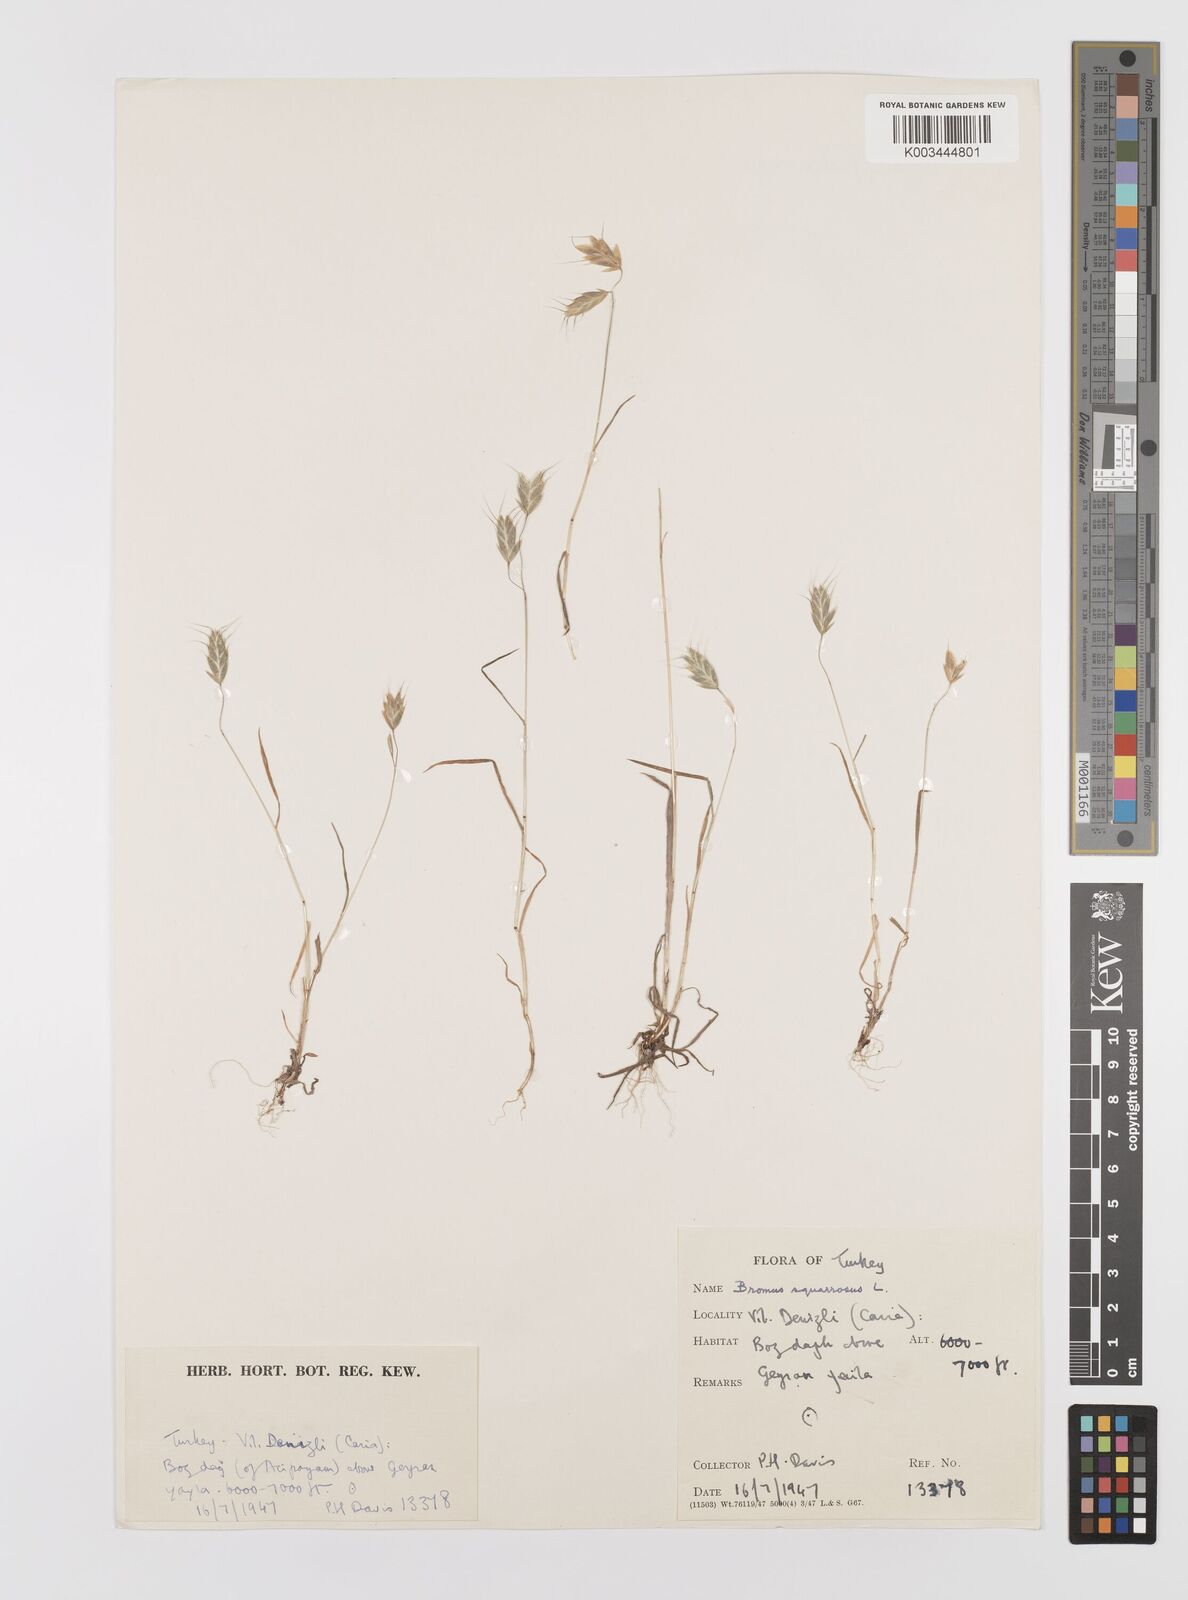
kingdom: Plantae
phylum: Tracheophyta
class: Liliopsida
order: Poales
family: Poaceae
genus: Bromus
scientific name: Bromus squarrosus
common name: Corn brome
